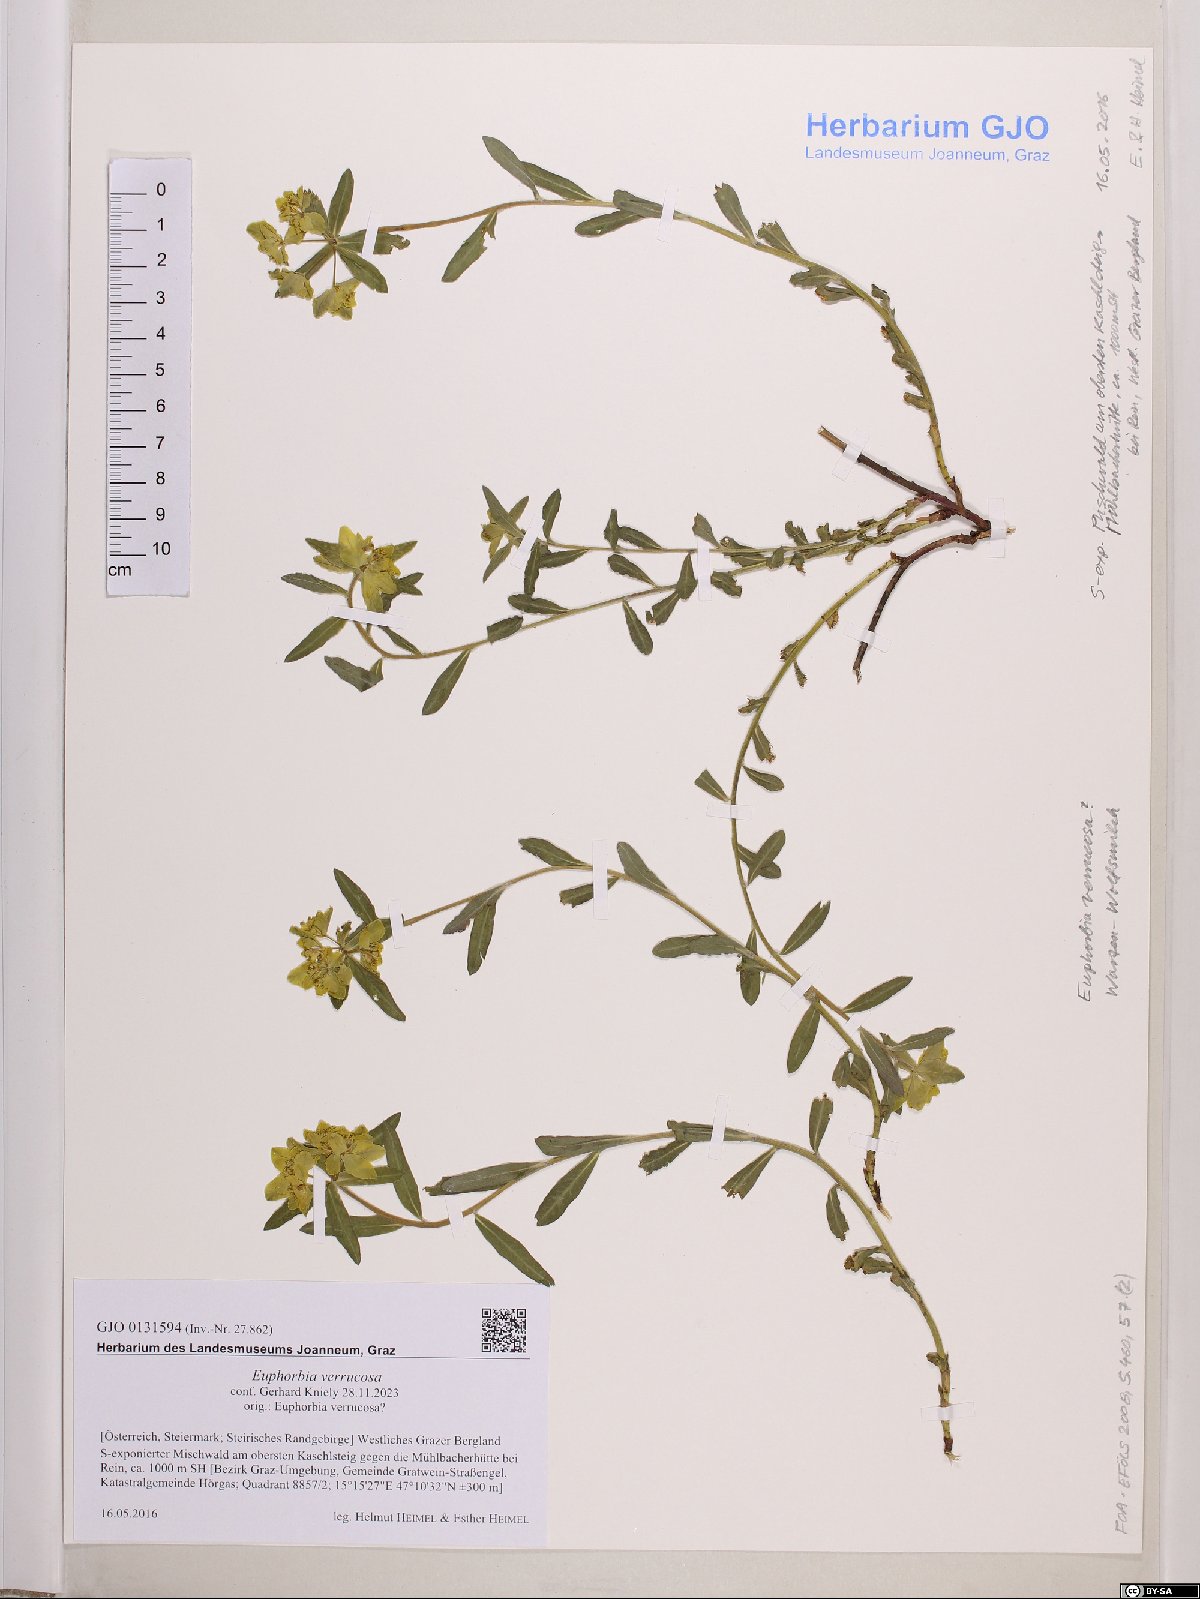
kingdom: Plantae
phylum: Tracheophyta
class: Magnoliopsida
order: Malpighiales
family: Euphorbiaceae
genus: Euphorbia
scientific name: Euphorbia verrucosa
